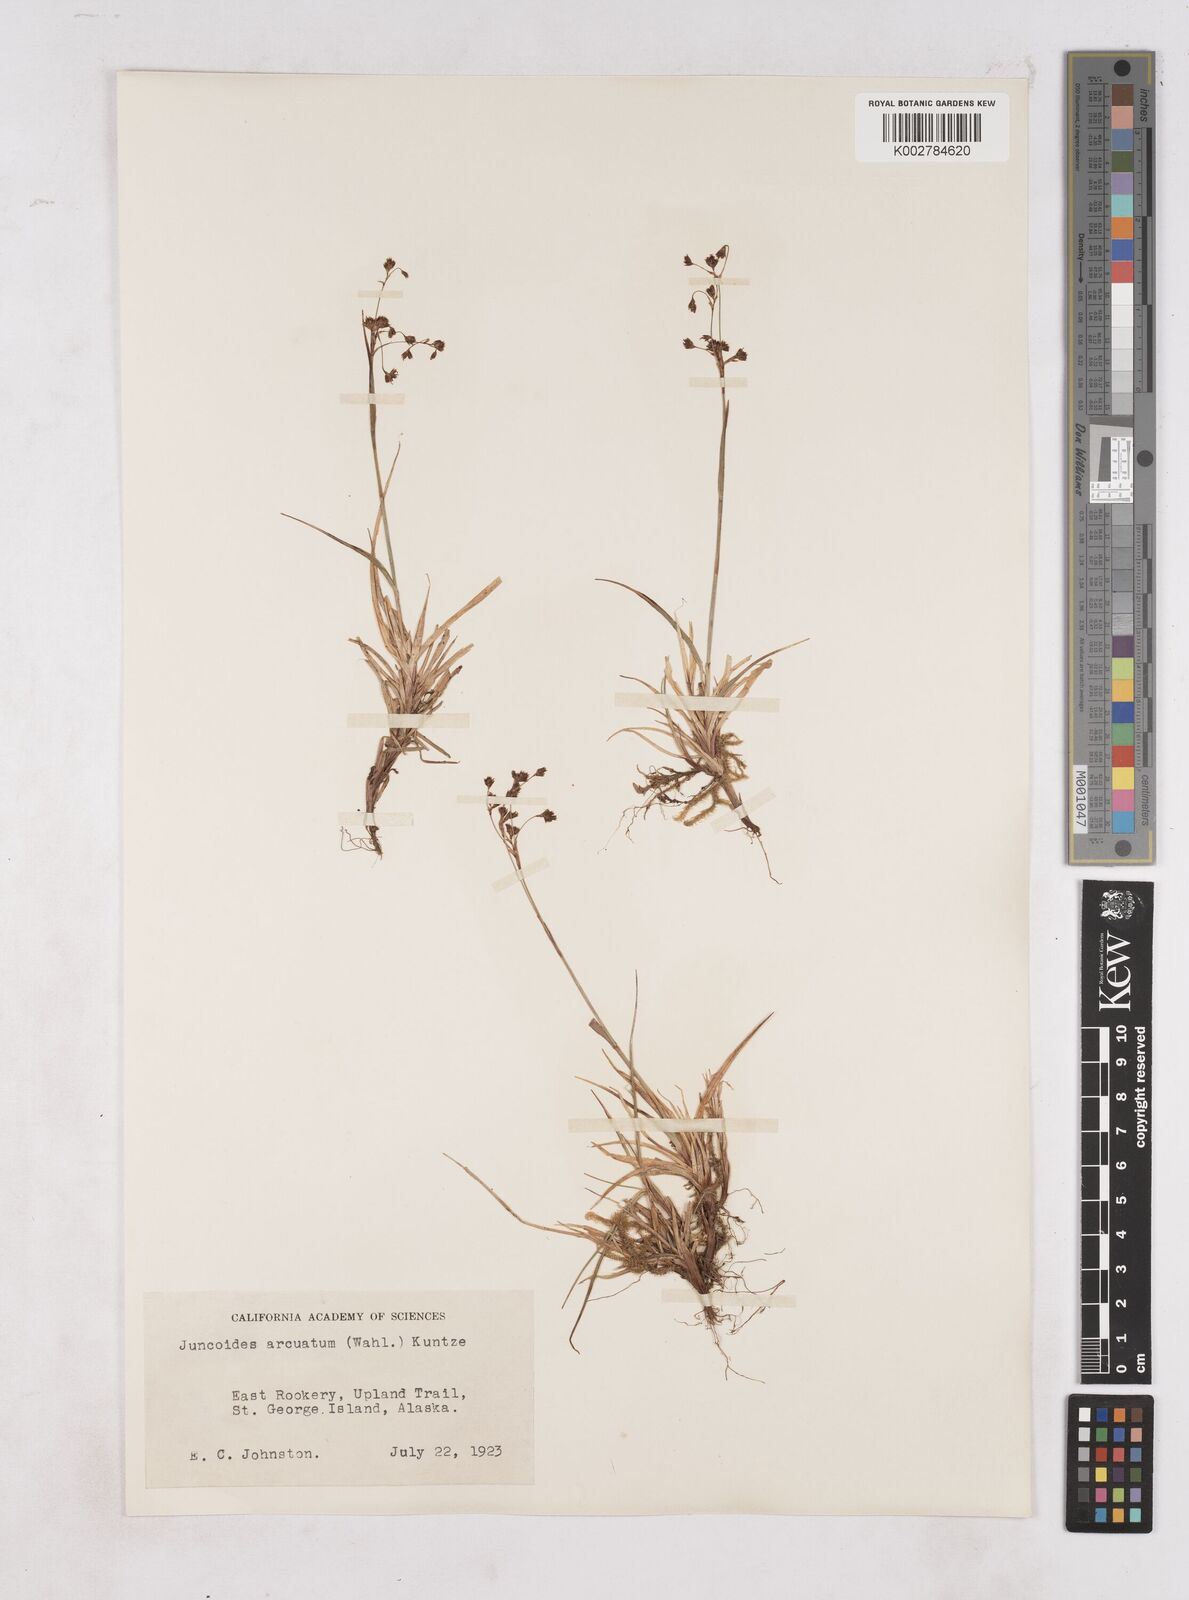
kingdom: Plantae
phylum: Tracheophyta
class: Liliopsida
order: Poales
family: Juncaceae
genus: Luzula
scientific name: Luzula arcuata
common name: Curved wood-rush
